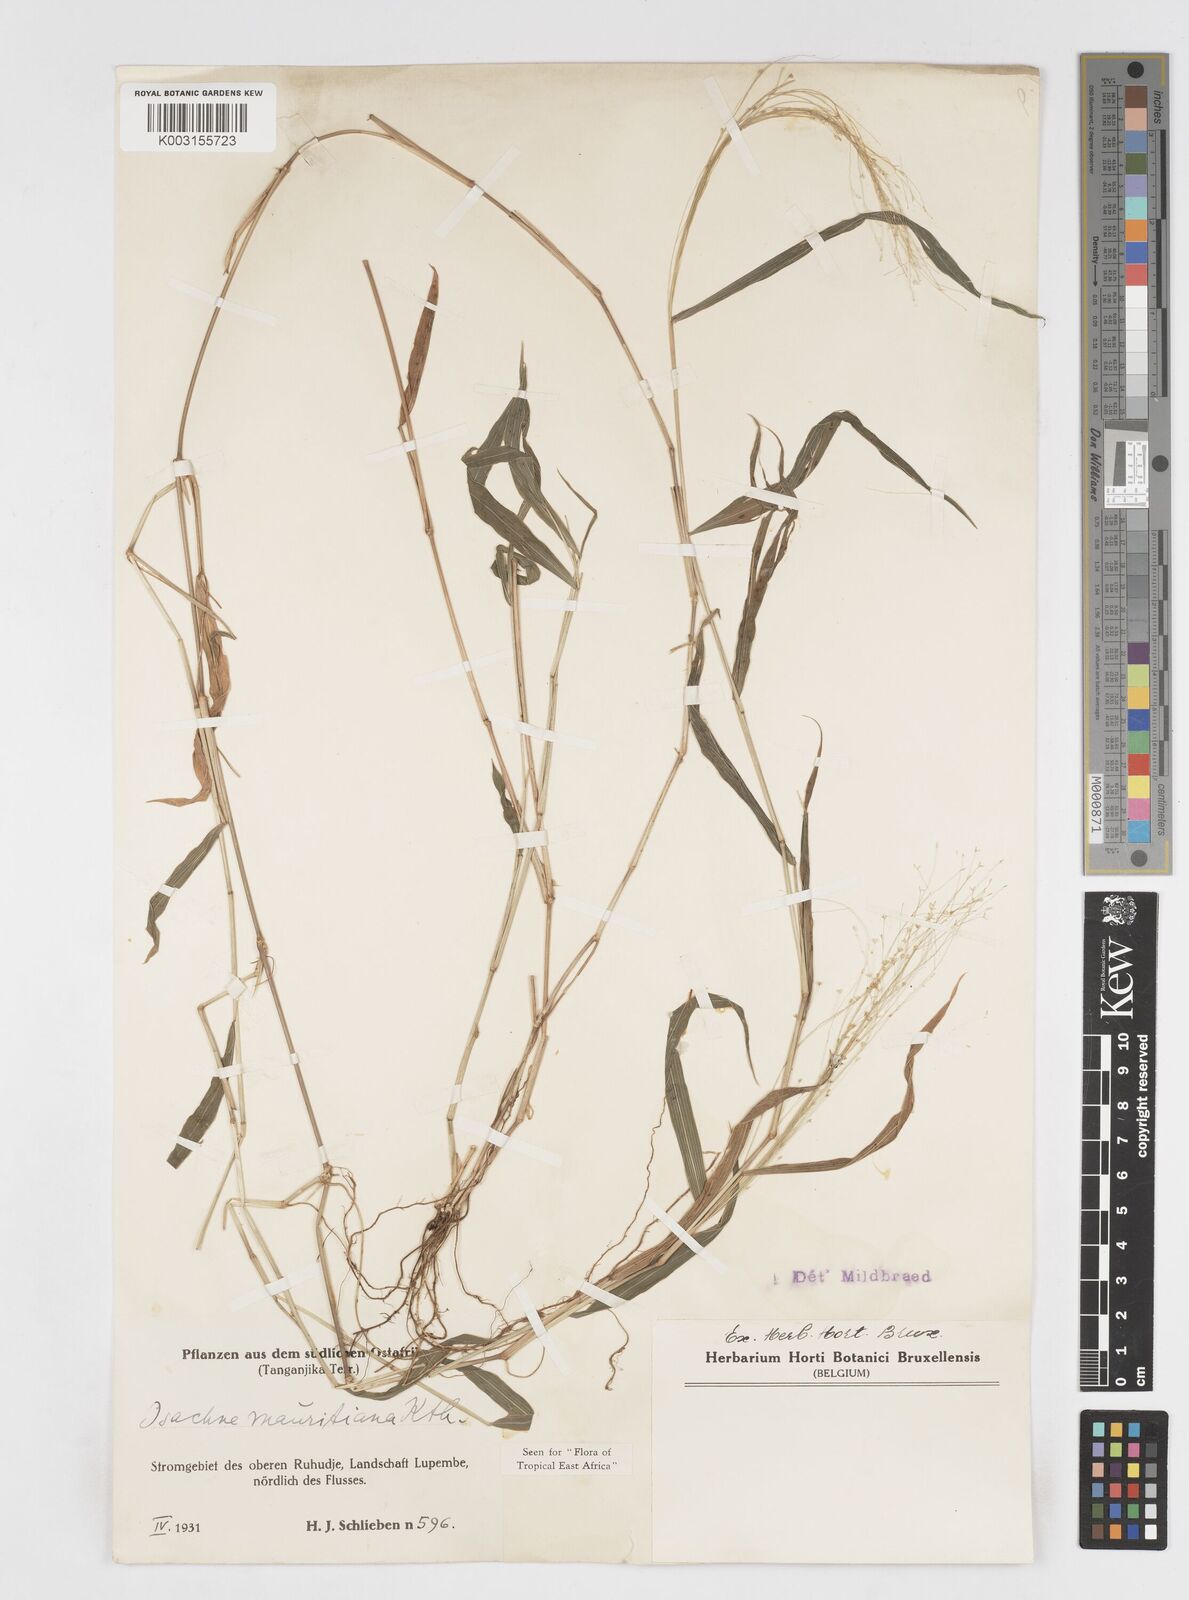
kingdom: Plantae
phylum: Tracheophyta
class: Liliopsida
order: Poales
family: Poaceae
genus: Isachne
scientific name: Isachne mauritiana
